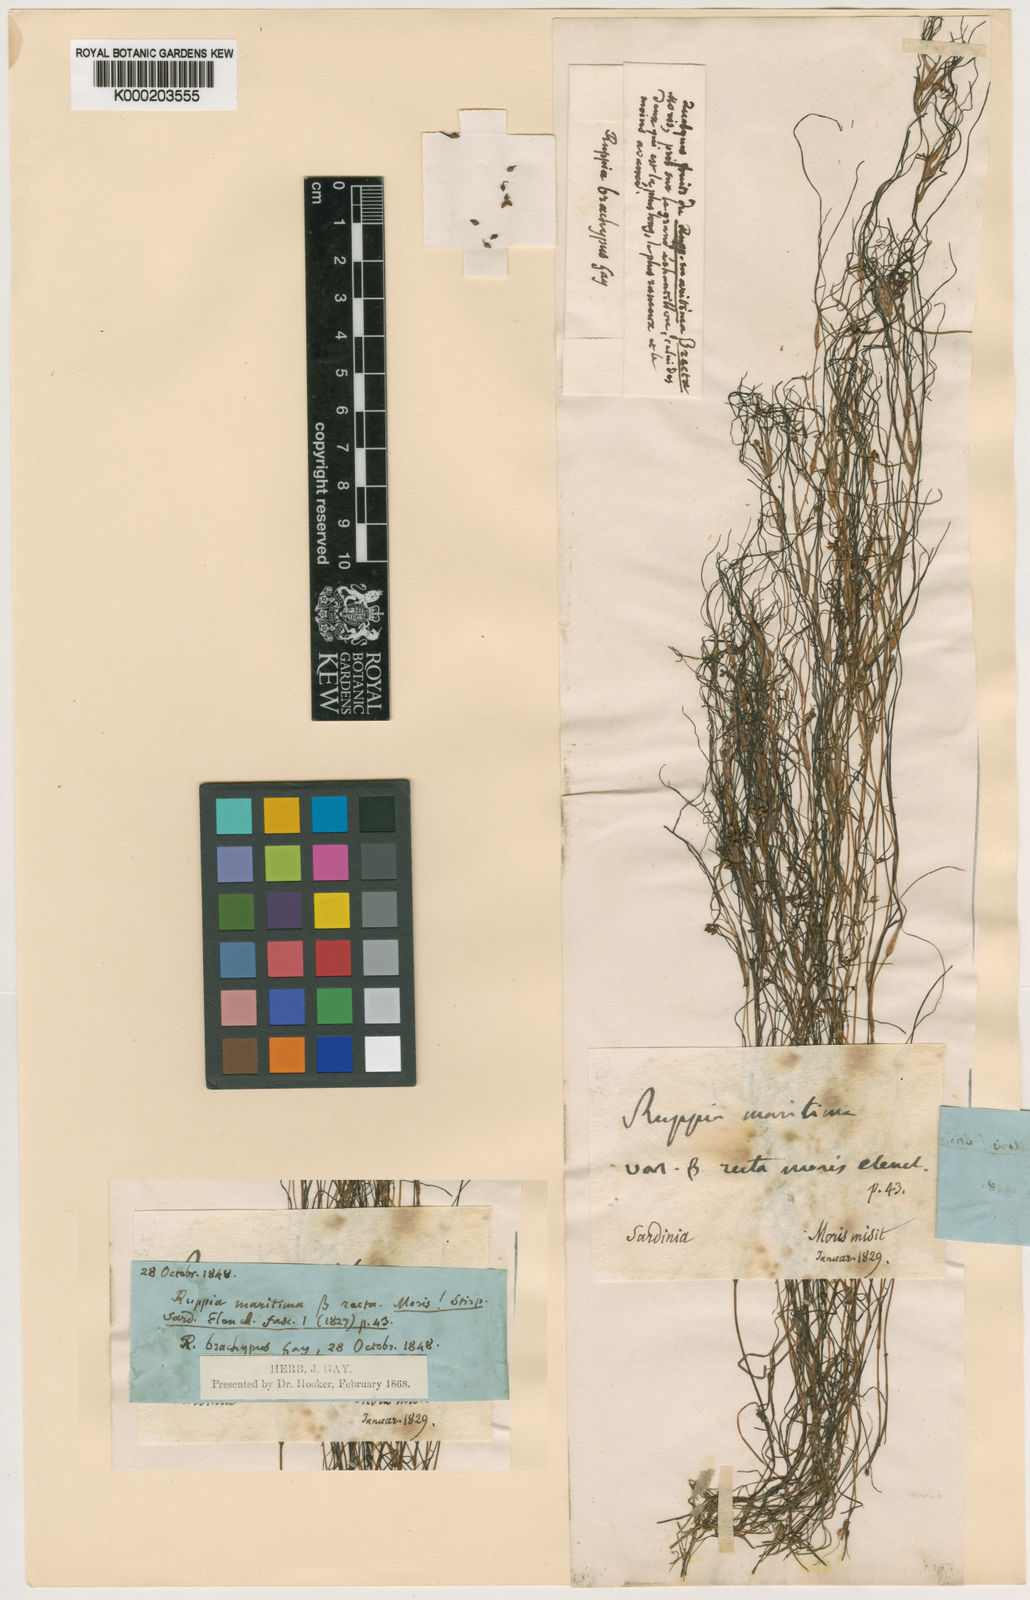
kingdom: Plantae
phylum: Tracheophyta
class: Liliopsida
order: Alismatales
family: Ruppiaceae
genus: Ruppia
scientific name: Ruppia maritima
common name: Beaked tasselweed
